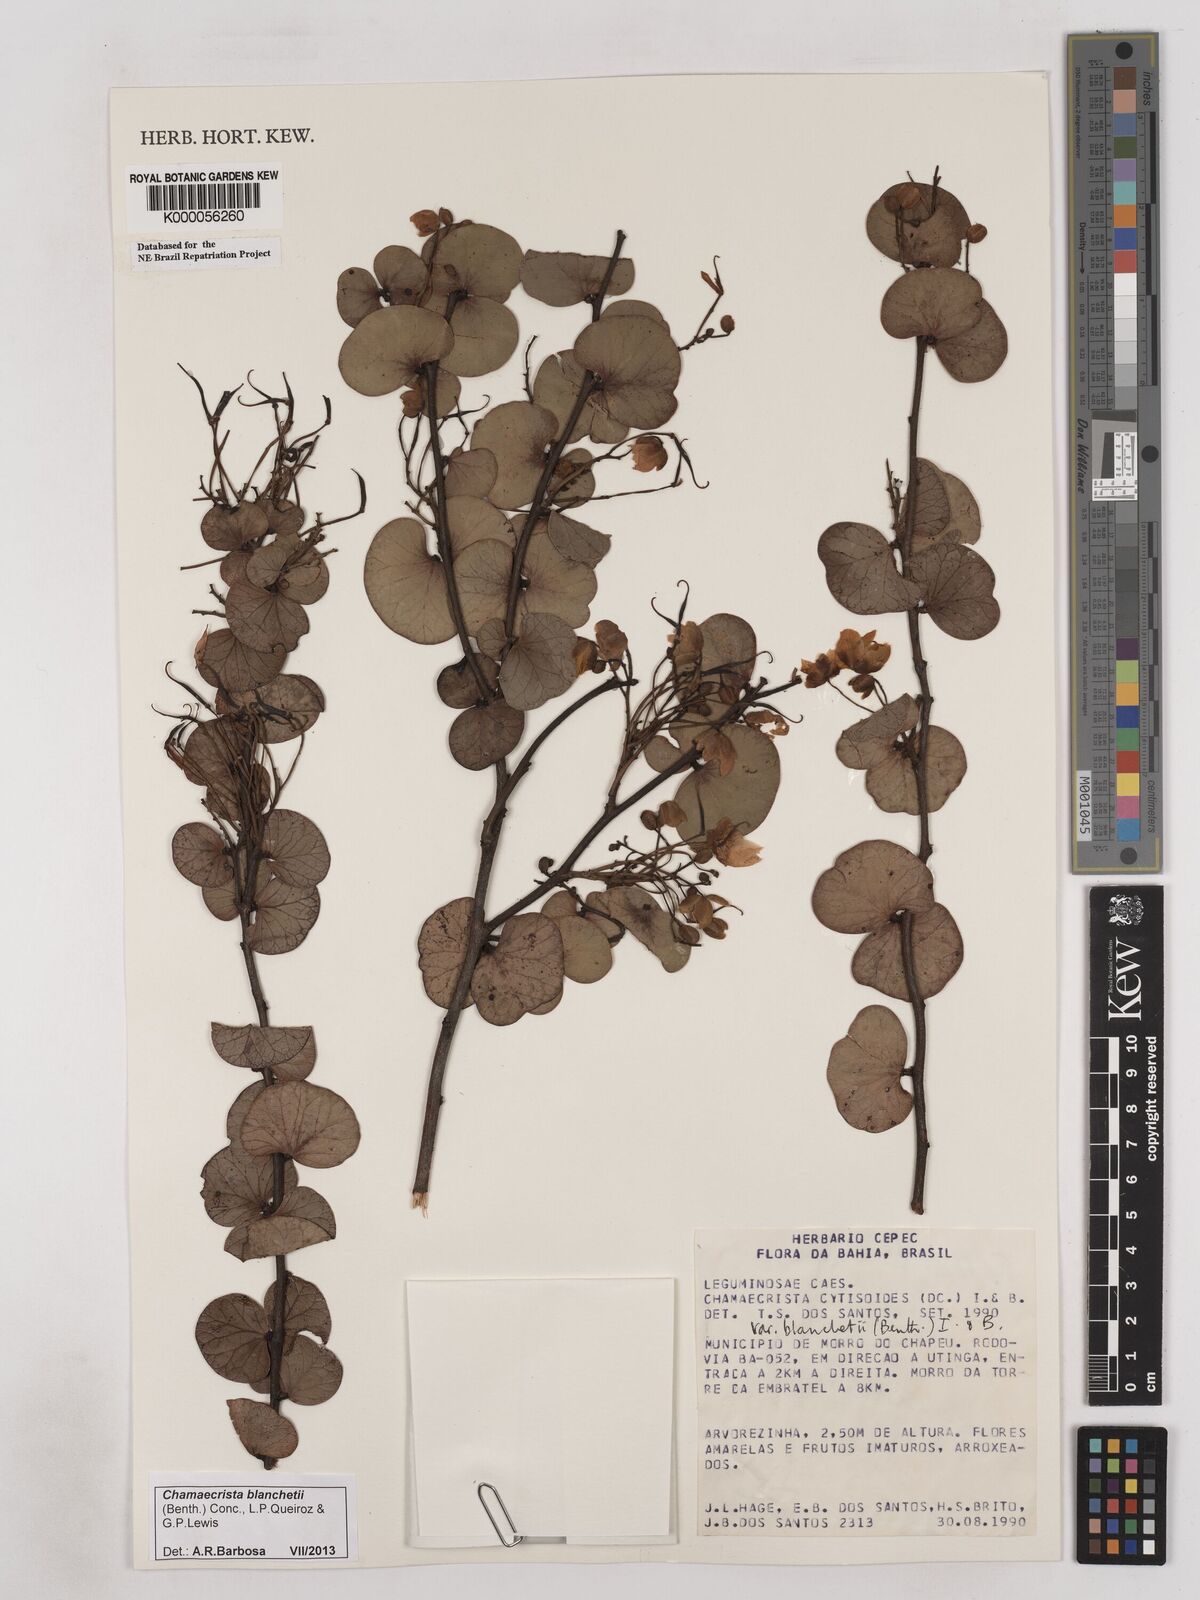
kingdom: Plantae
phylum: Tracheophyta
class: Magnoliopsida
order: Fabales
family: Fabaceae
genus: Chamaecrista
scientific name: Chamaecrista cytisoides
